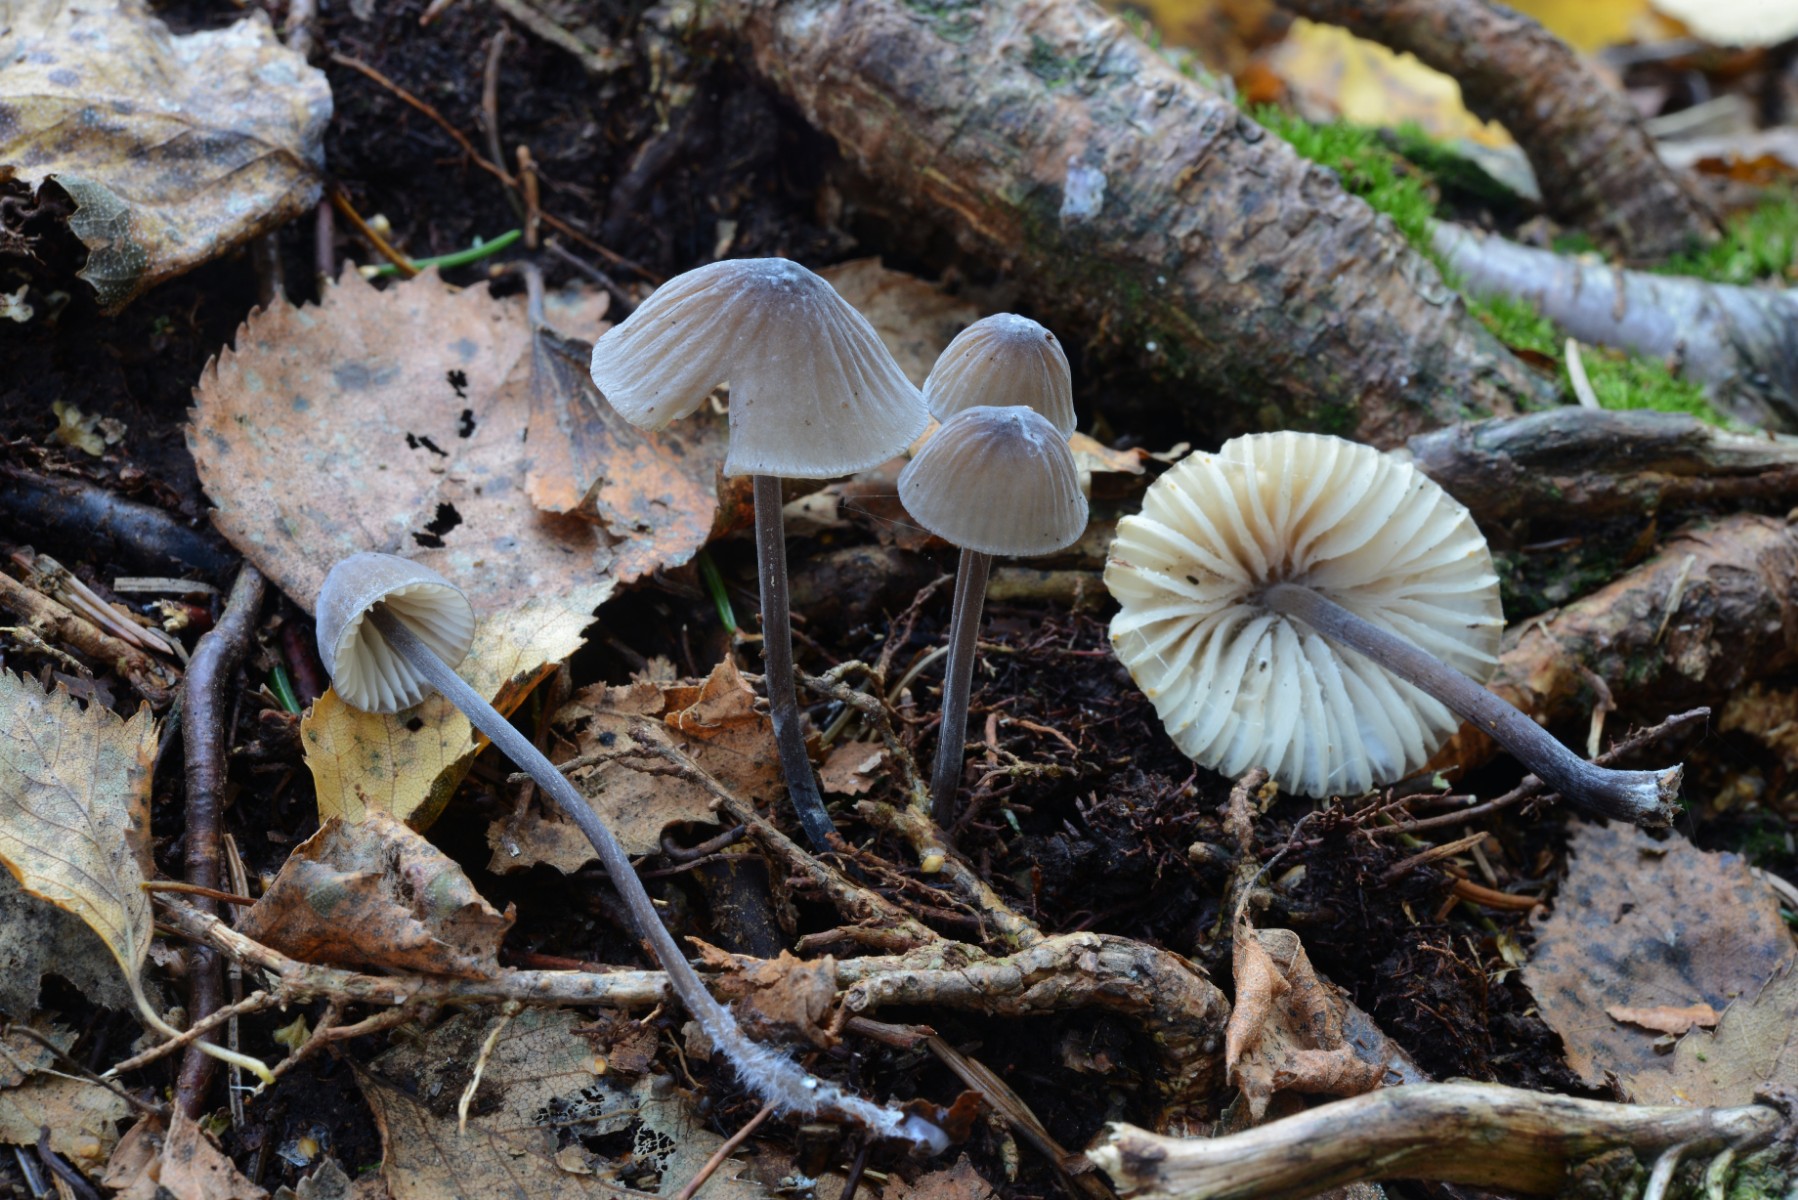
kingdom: Fungi
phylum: Basidiomycota
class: Agaricomycetes
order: Agaricales
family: Mycenaceae
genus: Mycena
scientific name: Mycena polygramma
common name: mangestribet huesvamp
